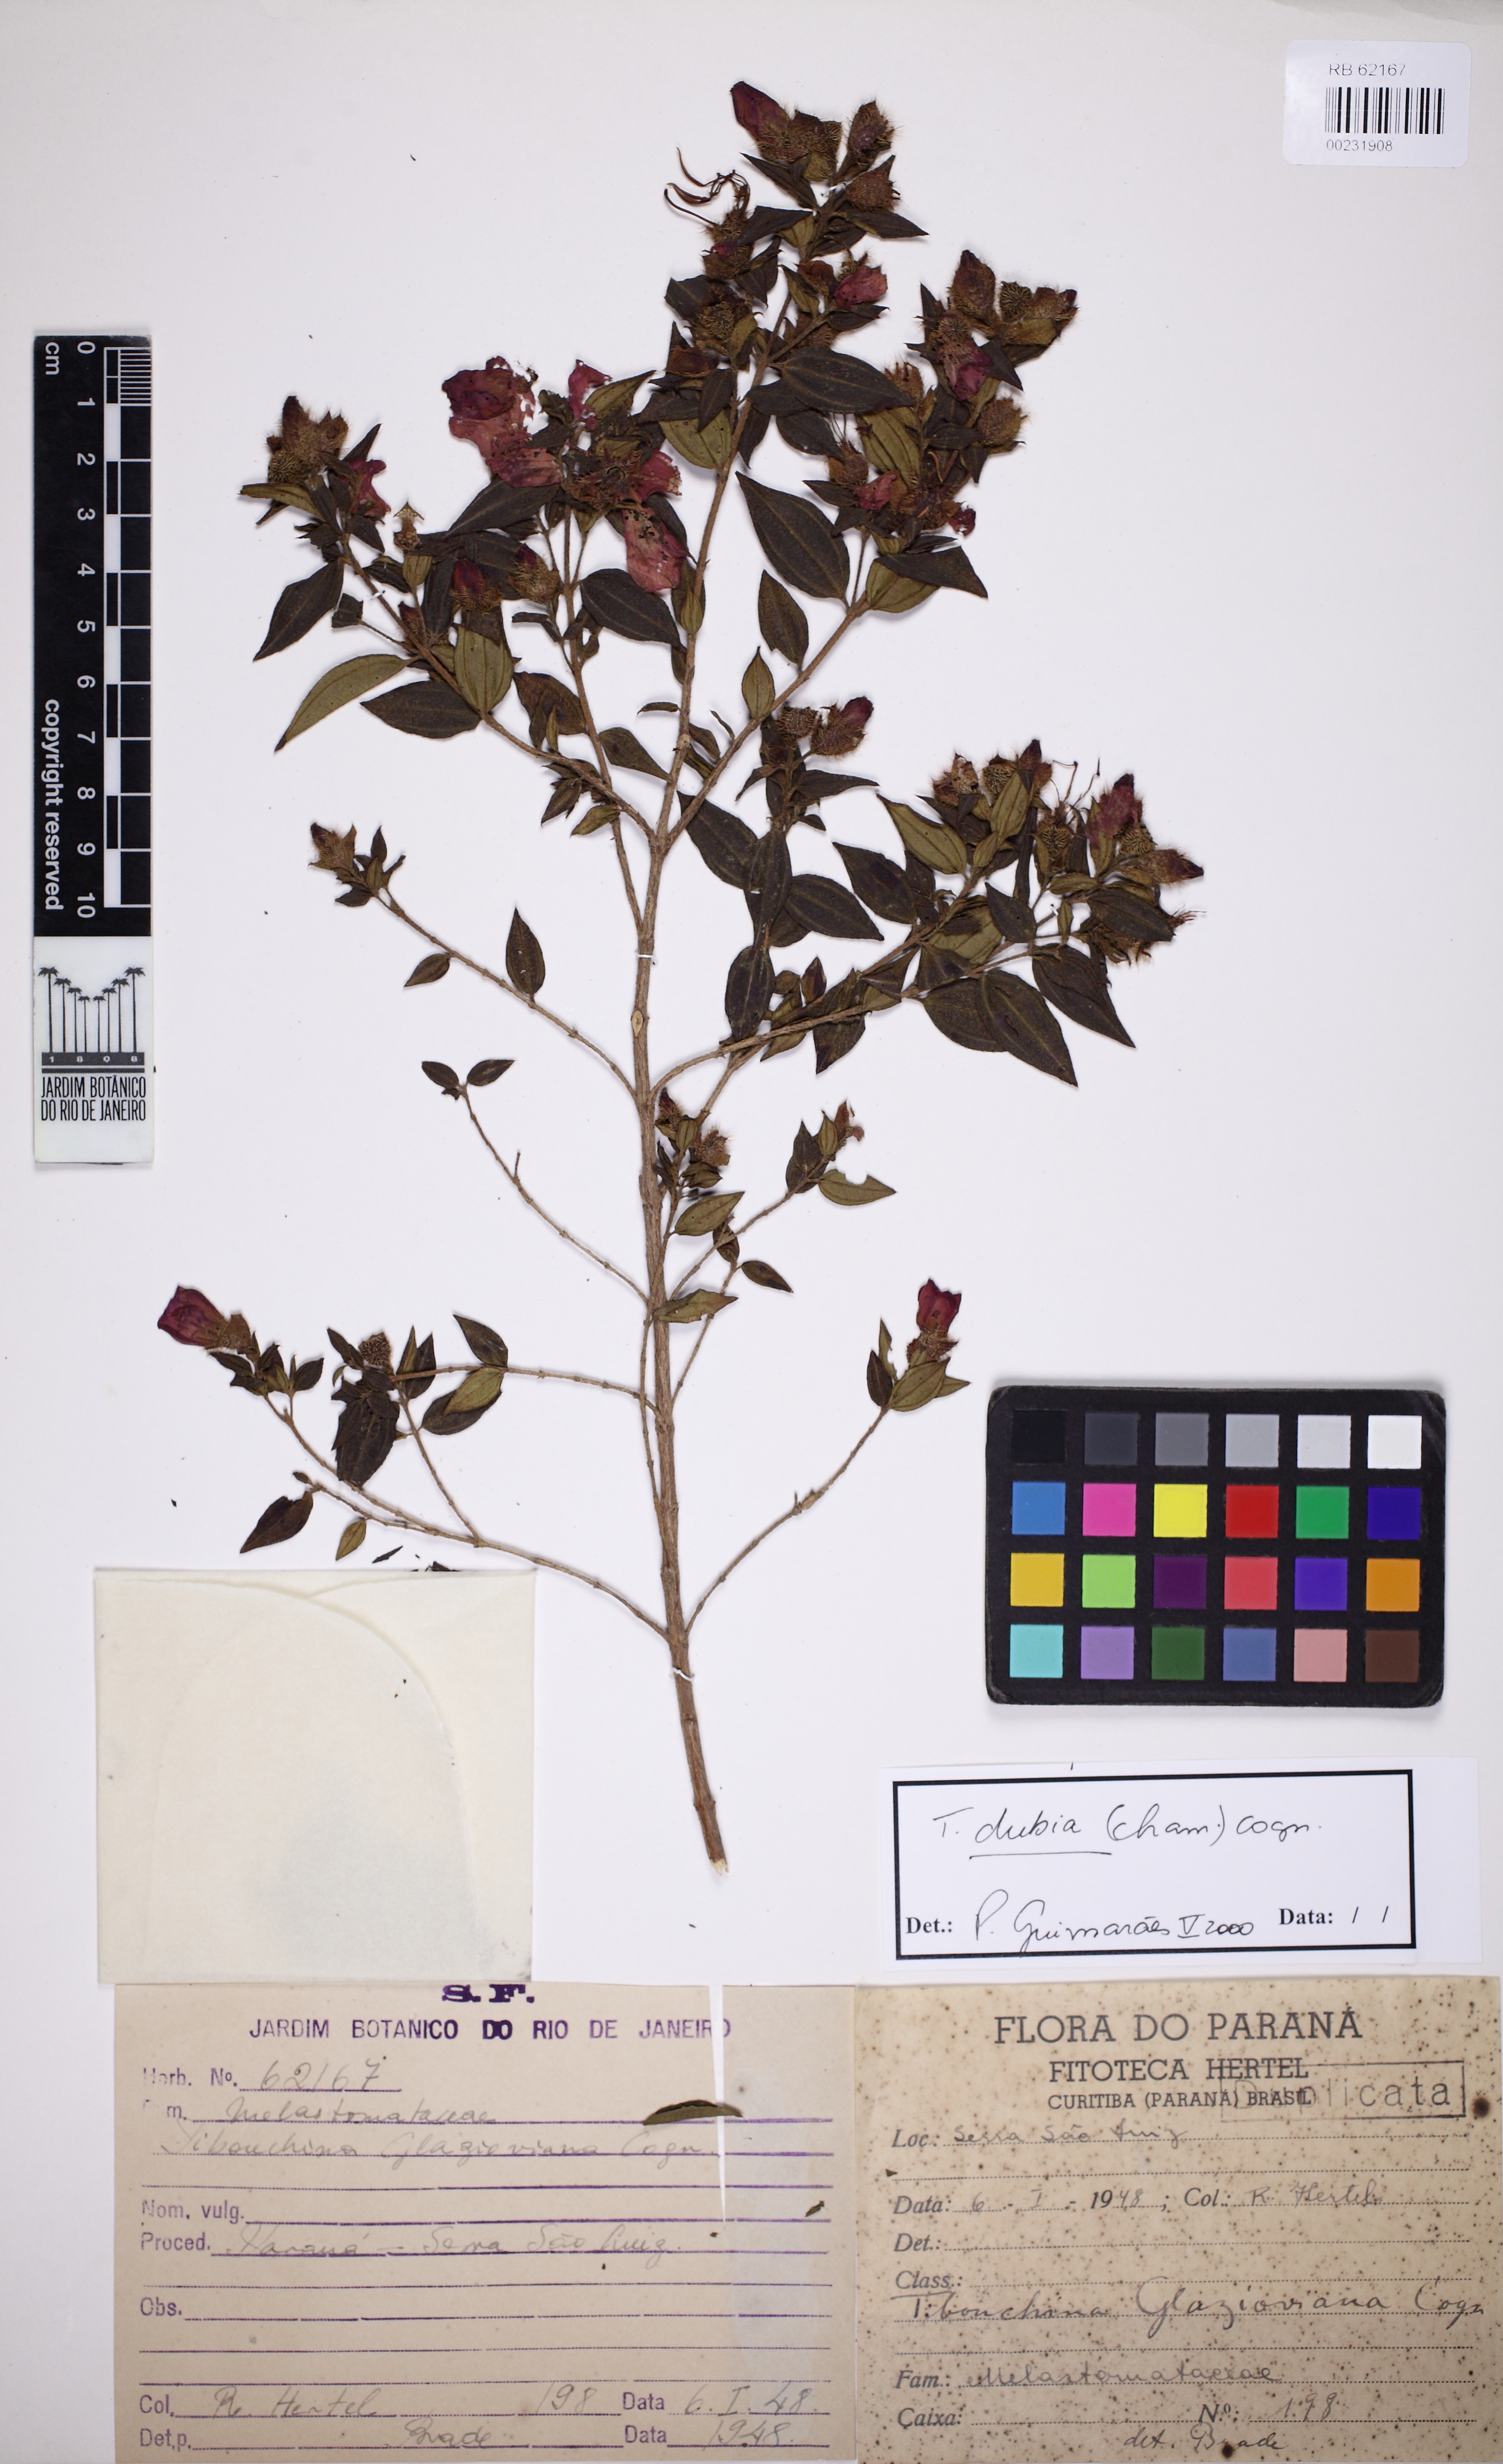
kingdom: Plantae
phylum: Tracheophyta
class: Magnoliopsida
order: Myrtales
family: Melastomataceae
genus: Pleroma
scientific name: Pleroma dubium
